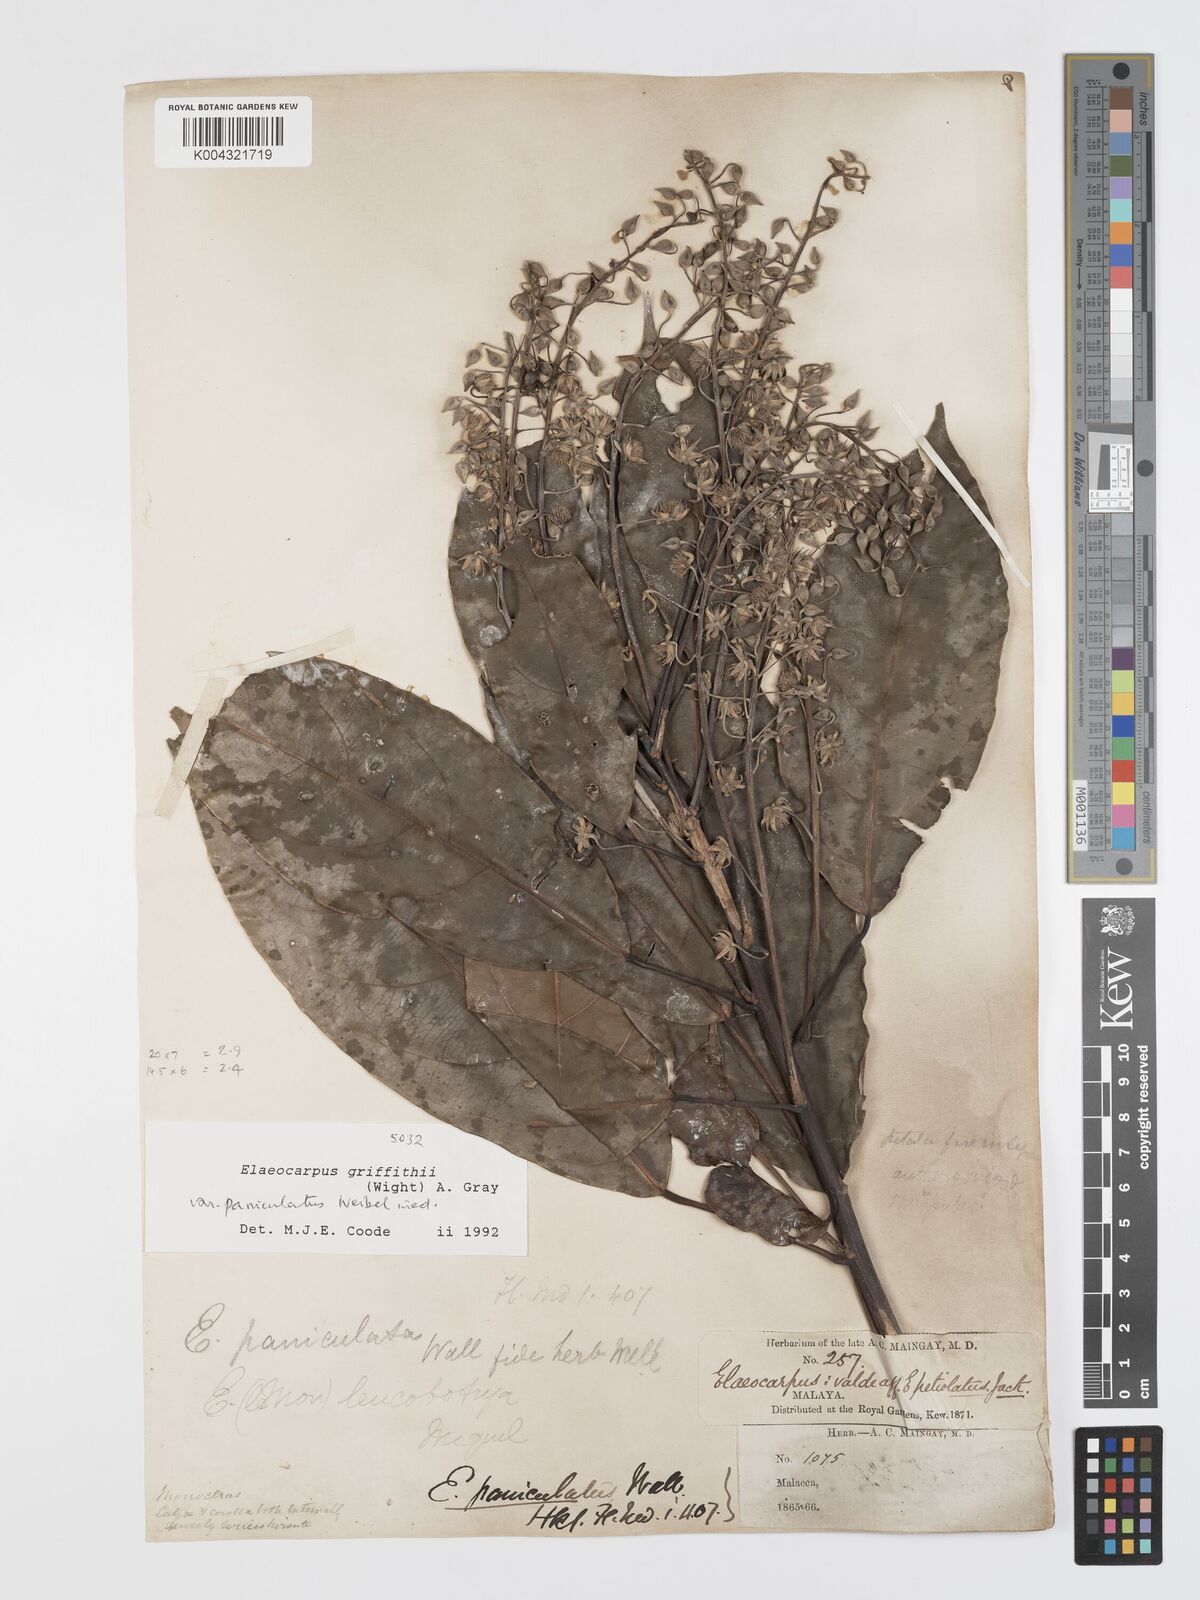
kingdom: Plantae
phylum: Tracheophyta
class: Magnoliopsida
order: Oxalidales
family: Elaeocarpaceae
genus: Elaeocarpus
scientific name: Elaeocarpus griffithii
